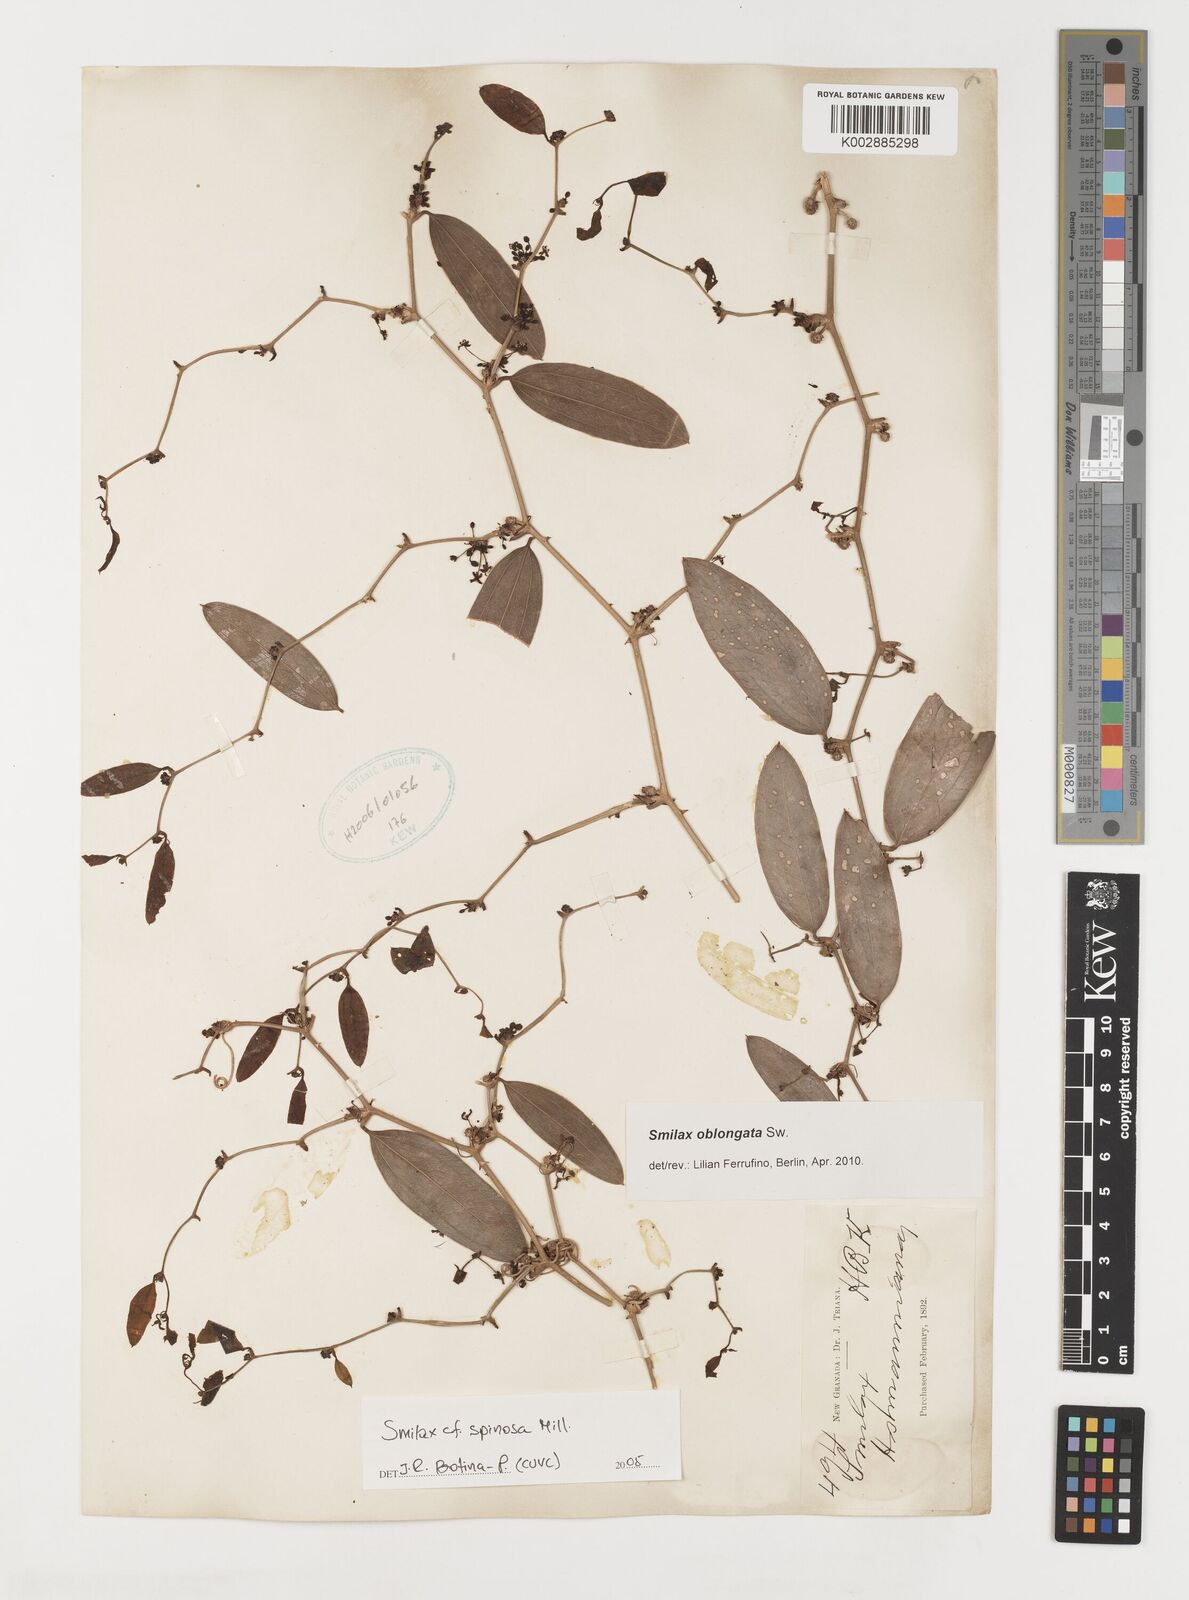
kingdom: Plantae
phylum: Tracheophyta
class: Liliopsida
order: Liliales
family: Smilacaceae
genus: Smilax
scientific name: Smilax oblongata
